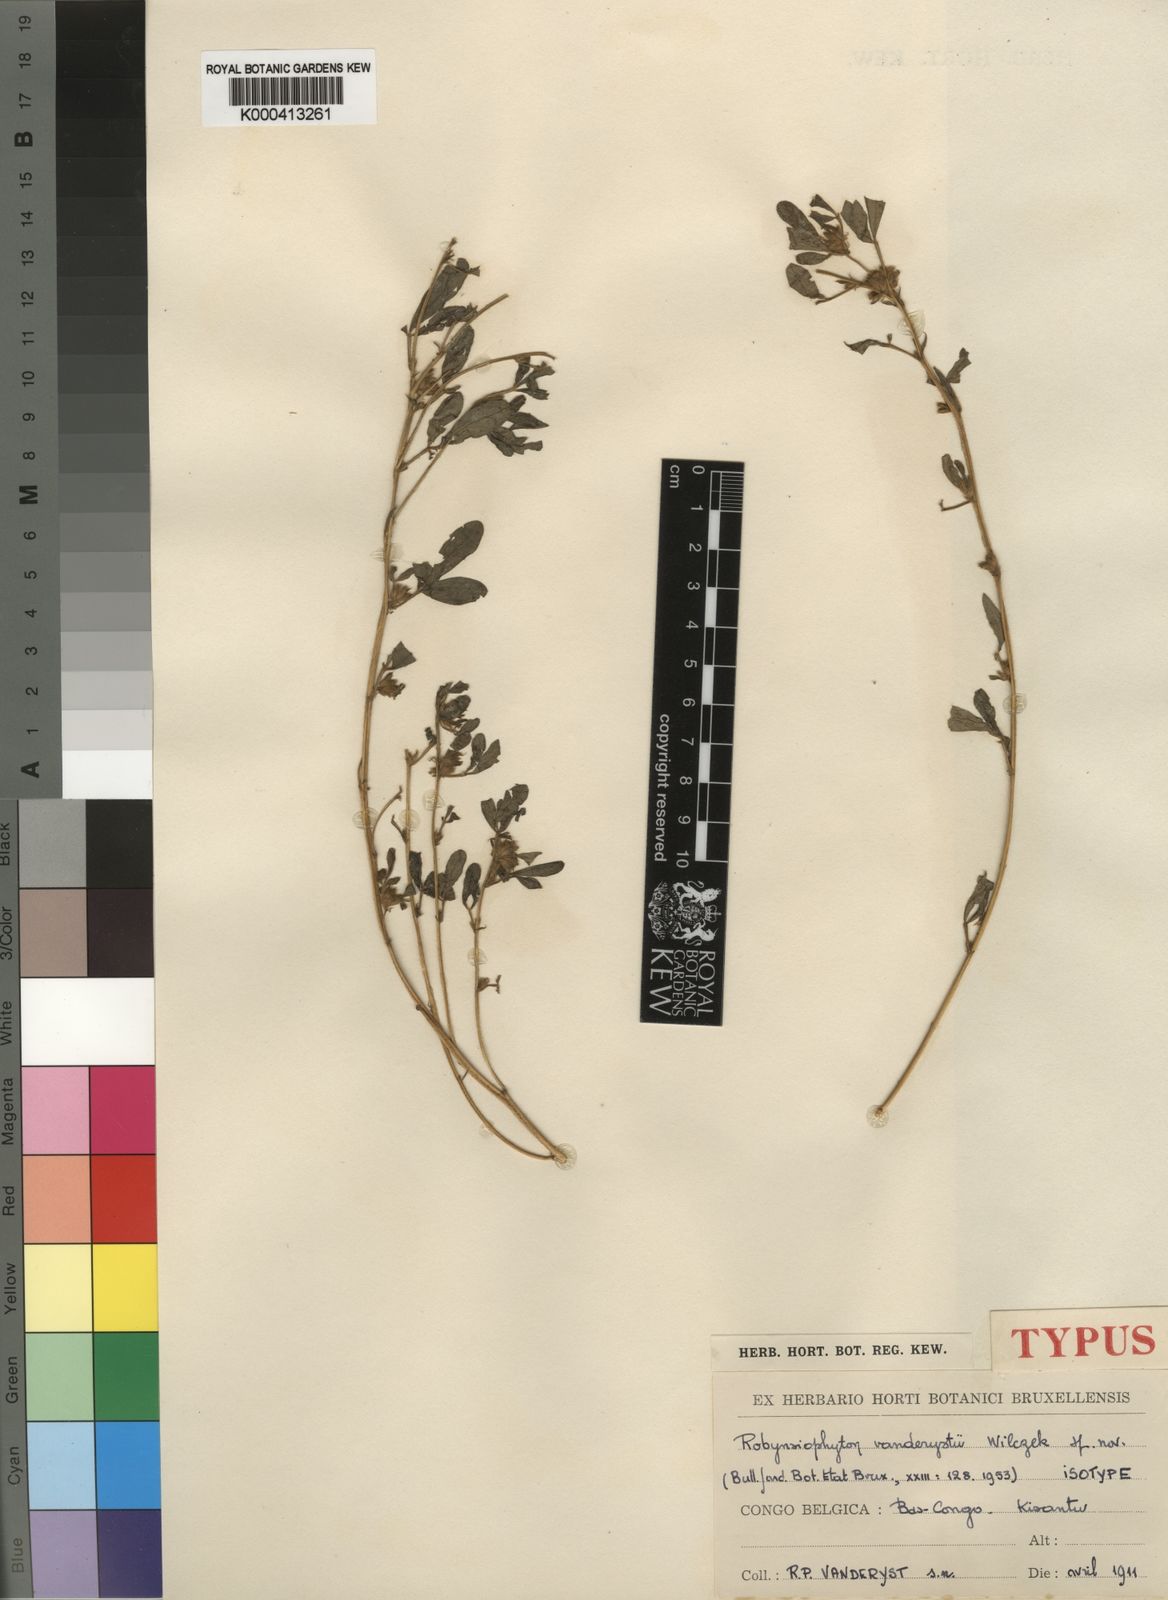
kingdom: Plantae
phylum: Tracheophyta
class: Magnoliopsida
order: Fabales
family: Fabaceae
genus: Robynsiophyton
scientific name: Robynsiophyton vanderystii
